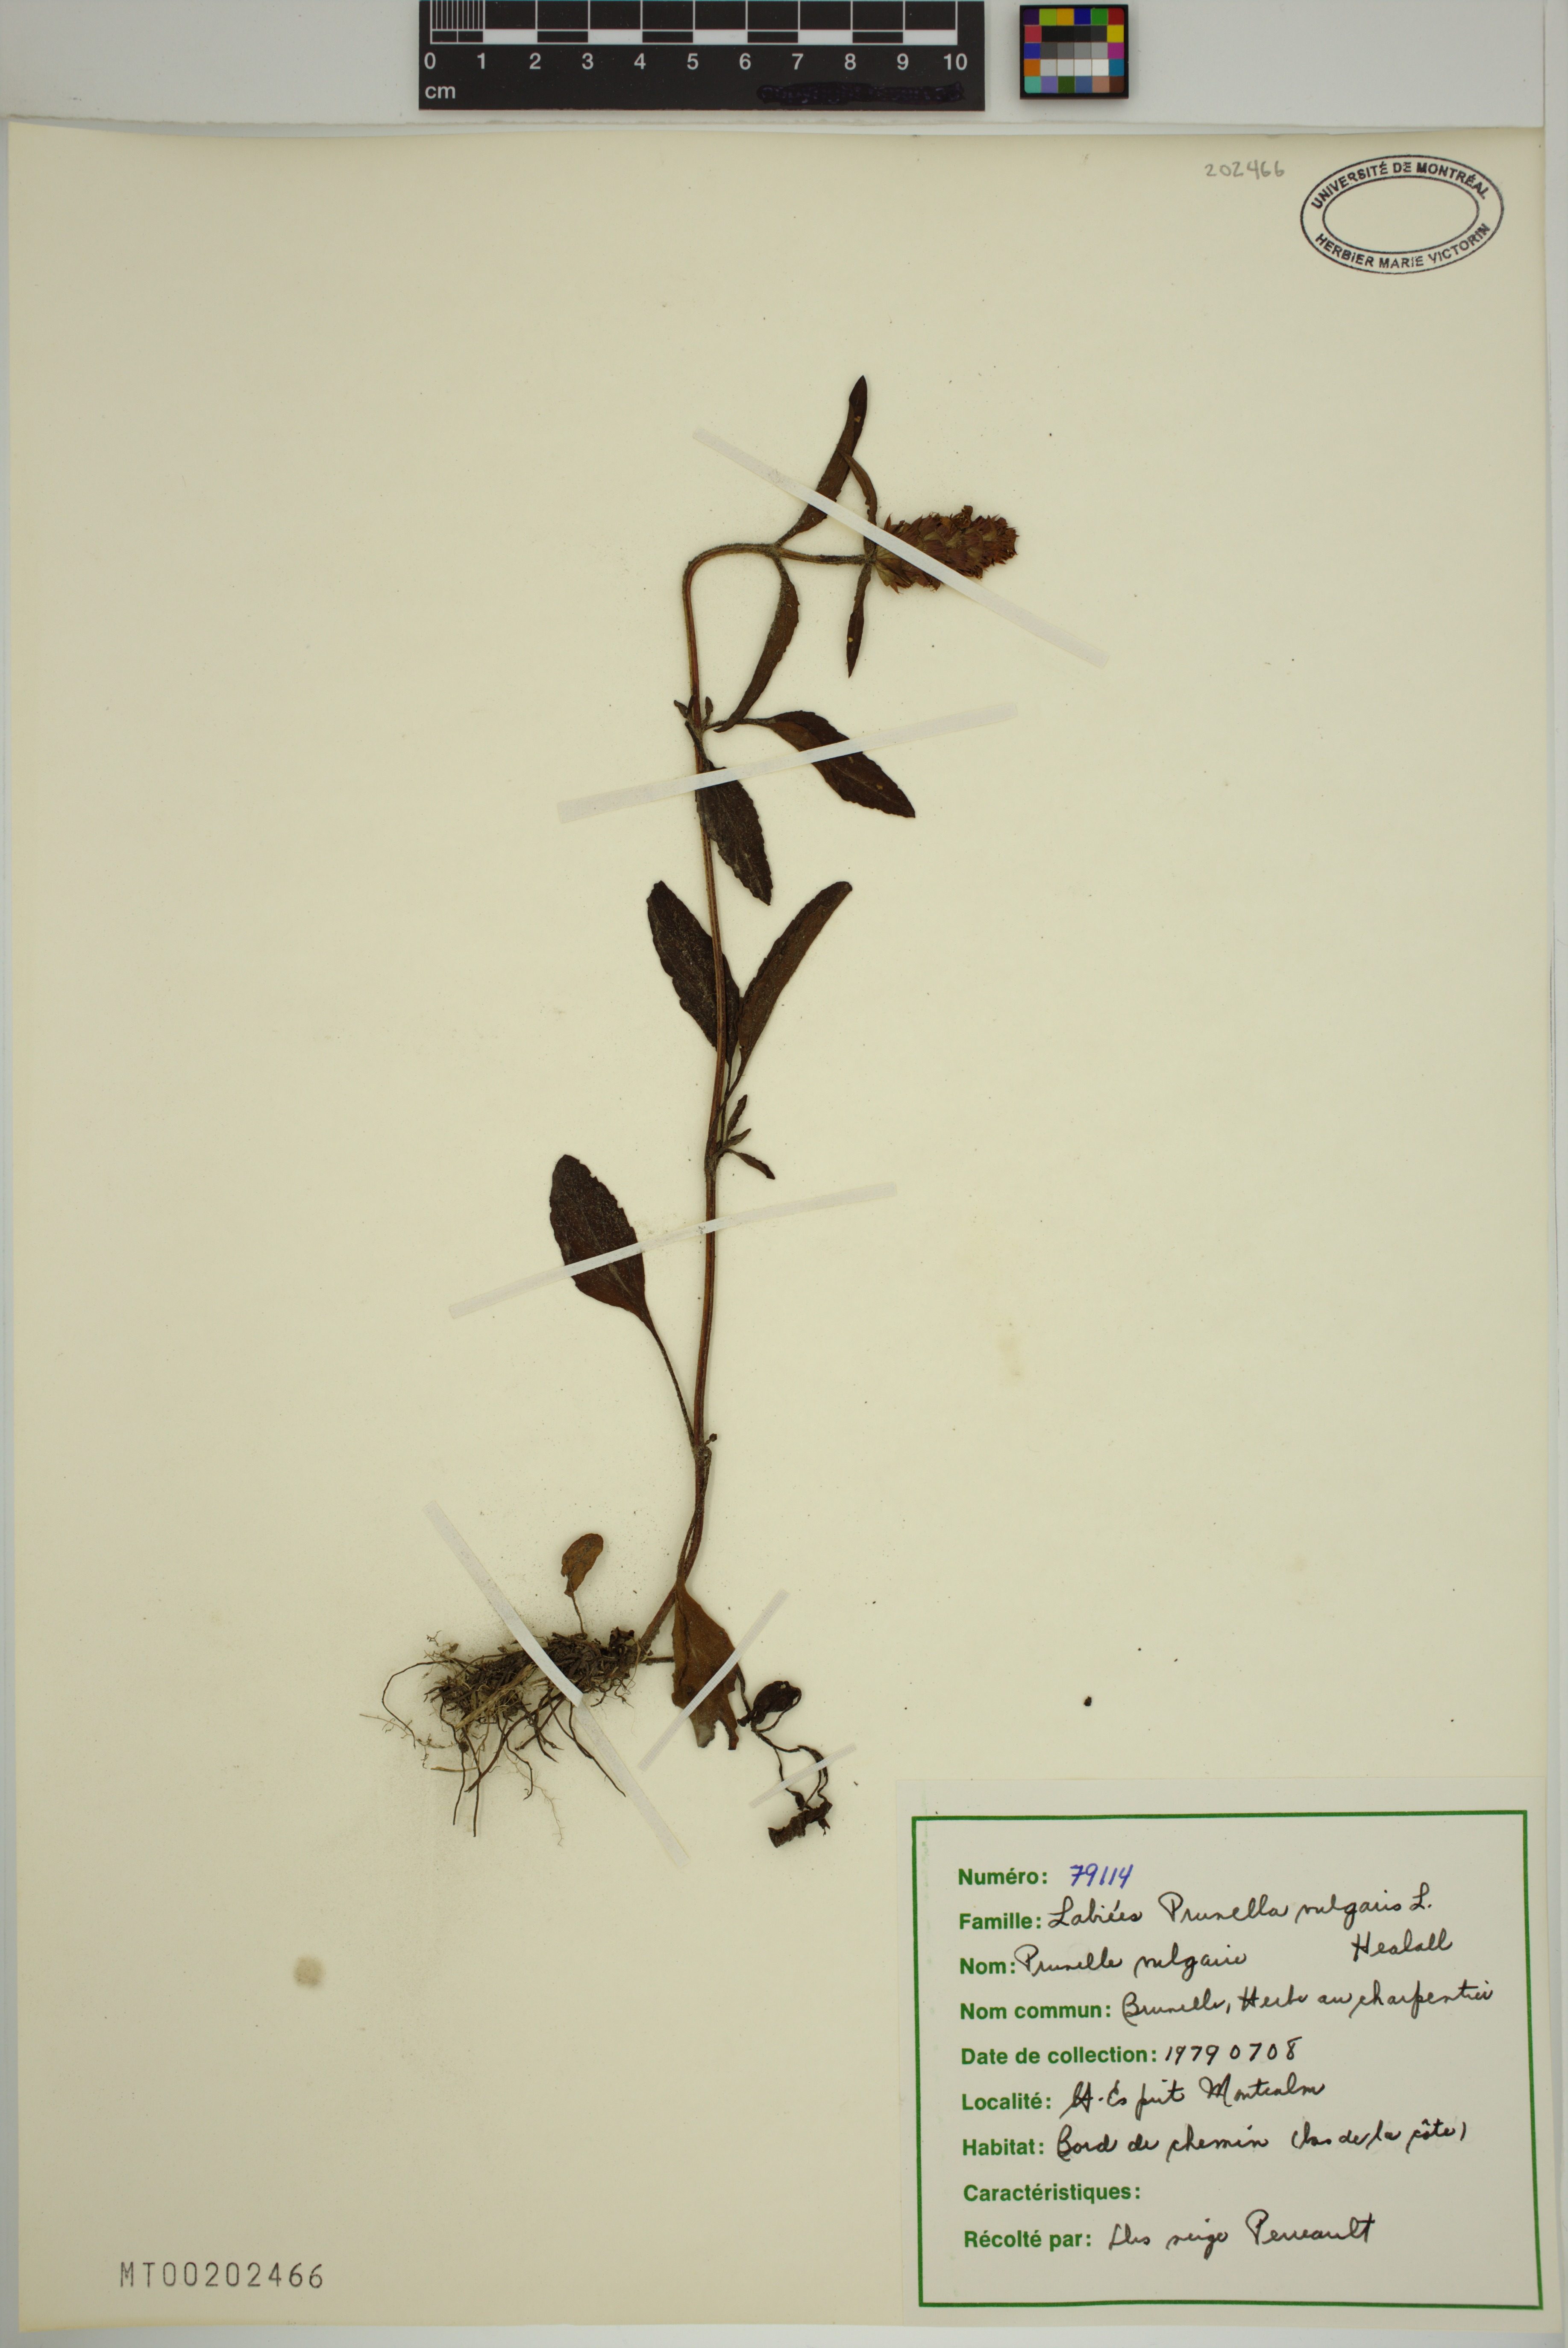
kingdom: Plantae
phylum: Tracheophyta
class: Magnoliopsida
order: Lamiales
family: Lamiaceae
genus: Prunella
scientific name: Prunella vulgaris
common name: Heal-all
